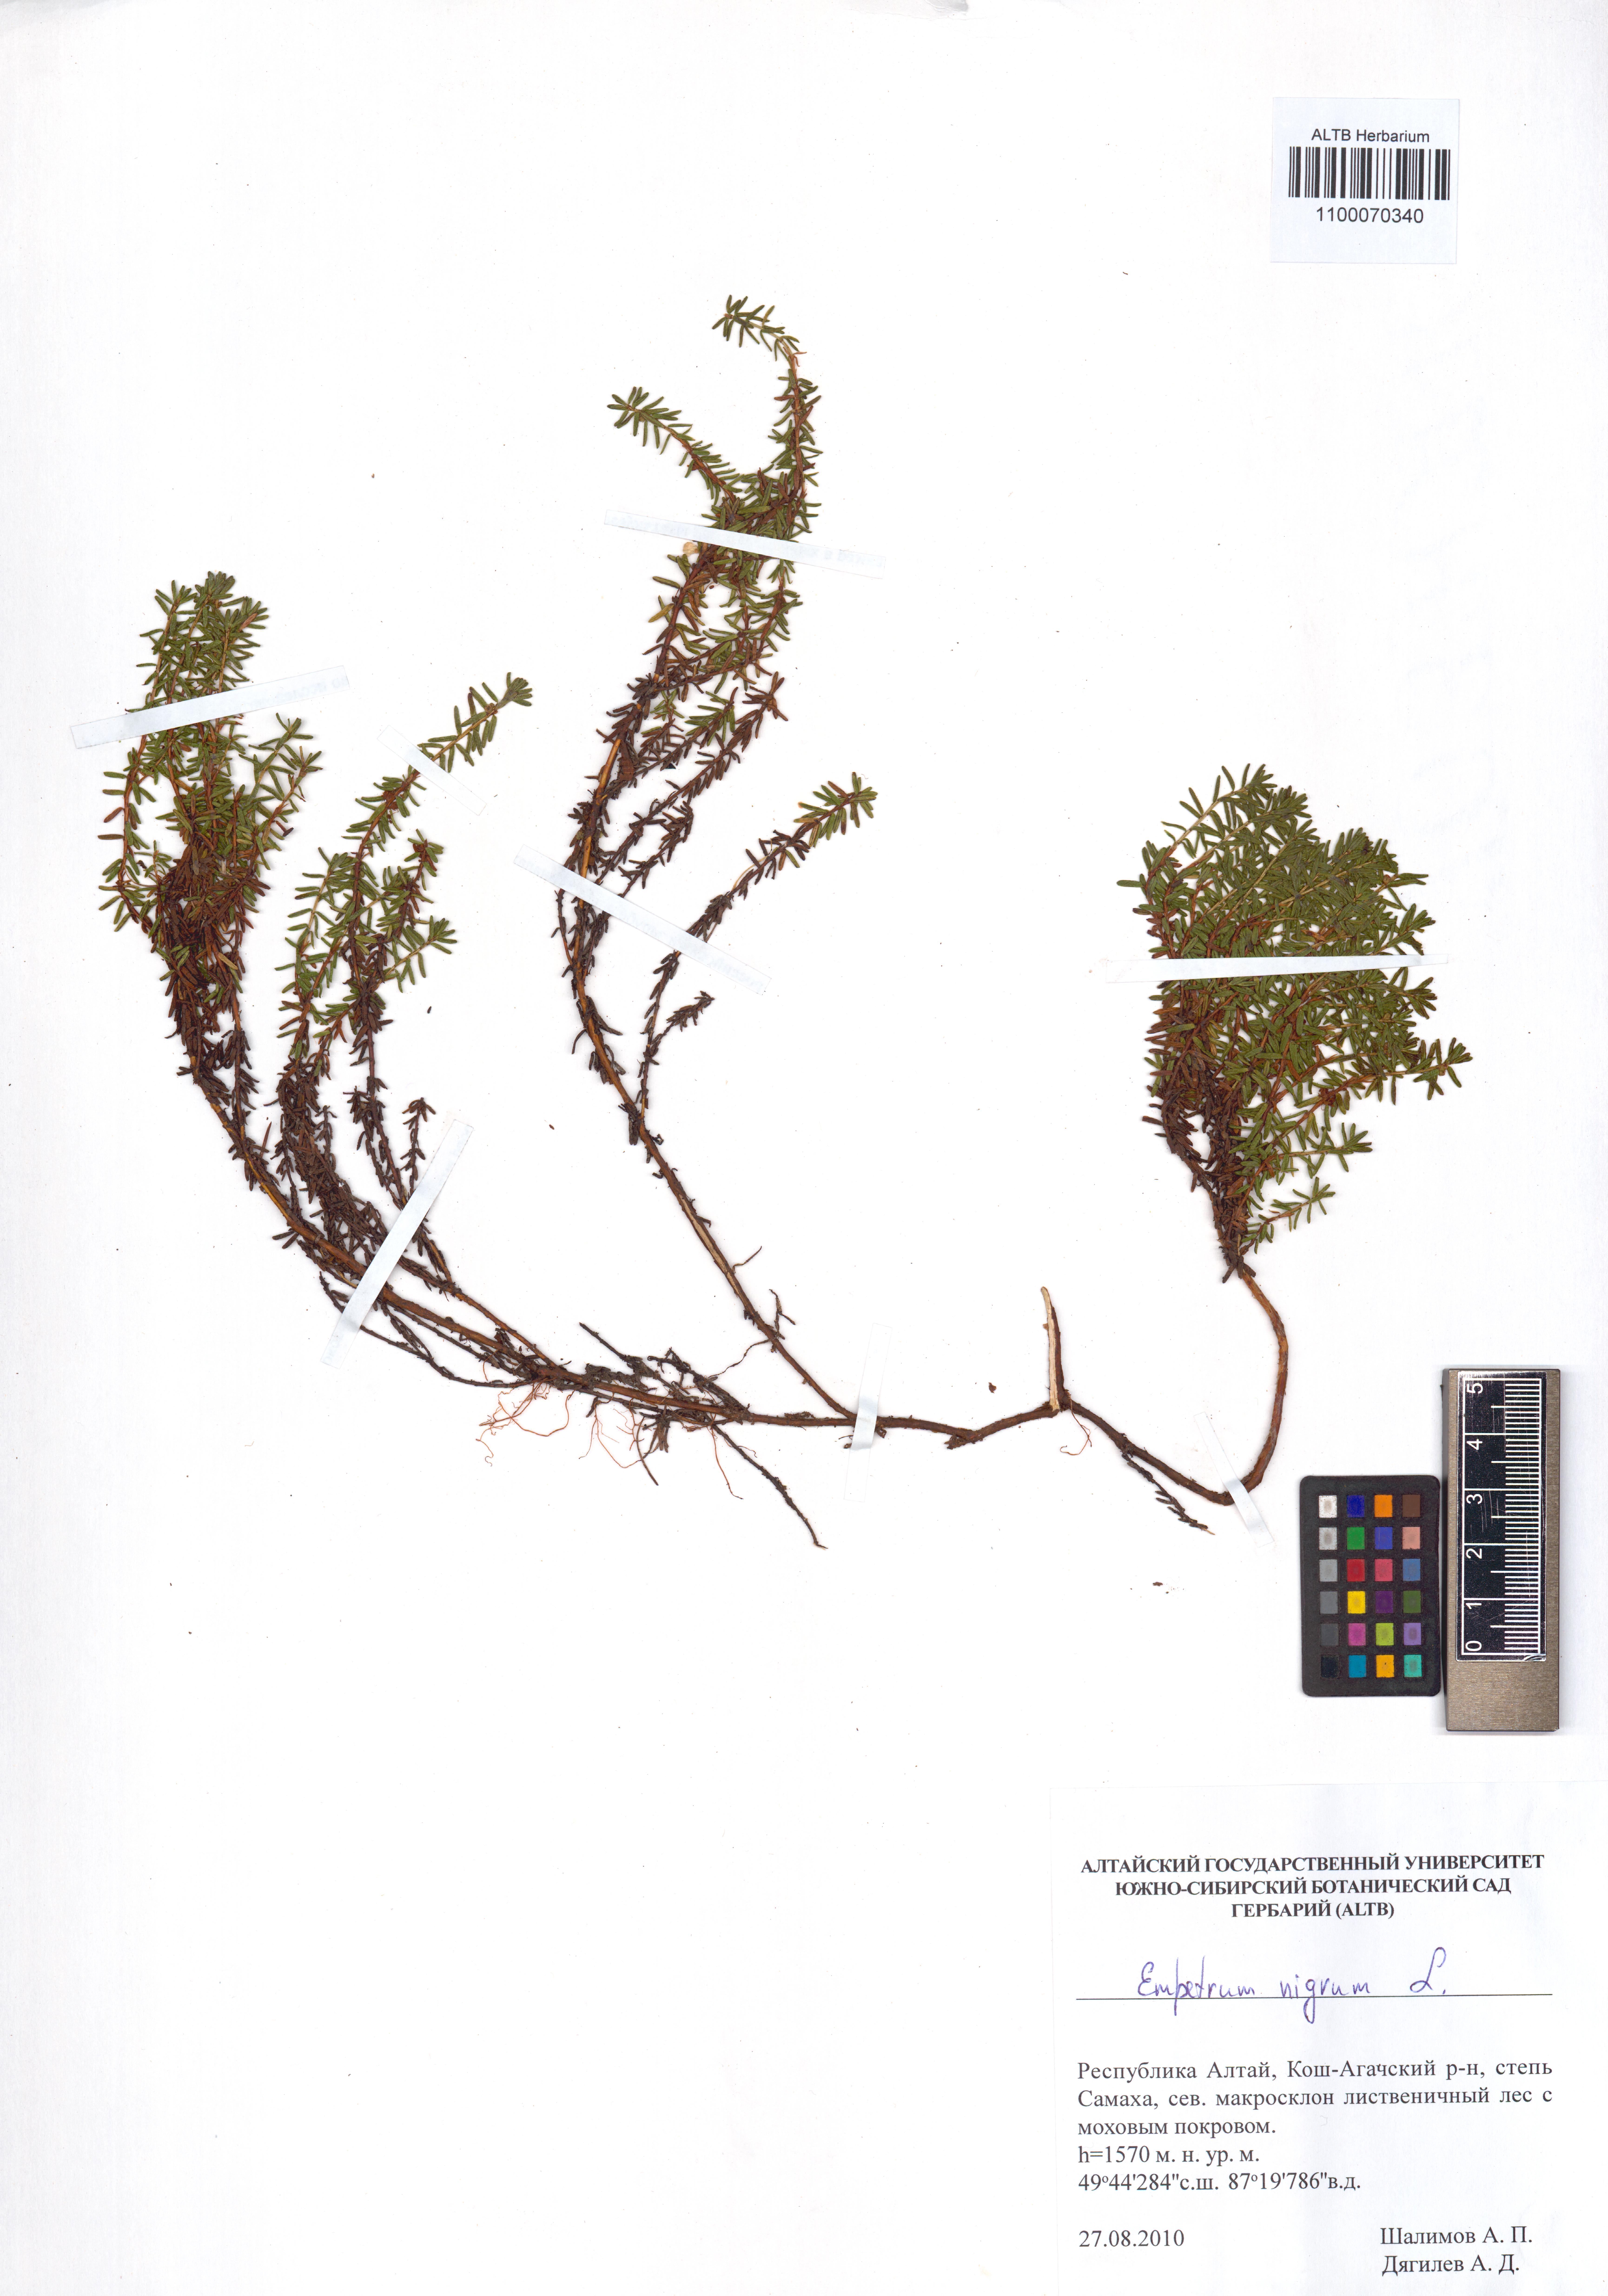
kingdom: Plantae
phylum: Tracheophyta
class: Magnoliopsida
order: Ericales
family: Ericaceae
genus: Empetrum
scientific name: Empetrum nigrum
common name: Black crowberry
